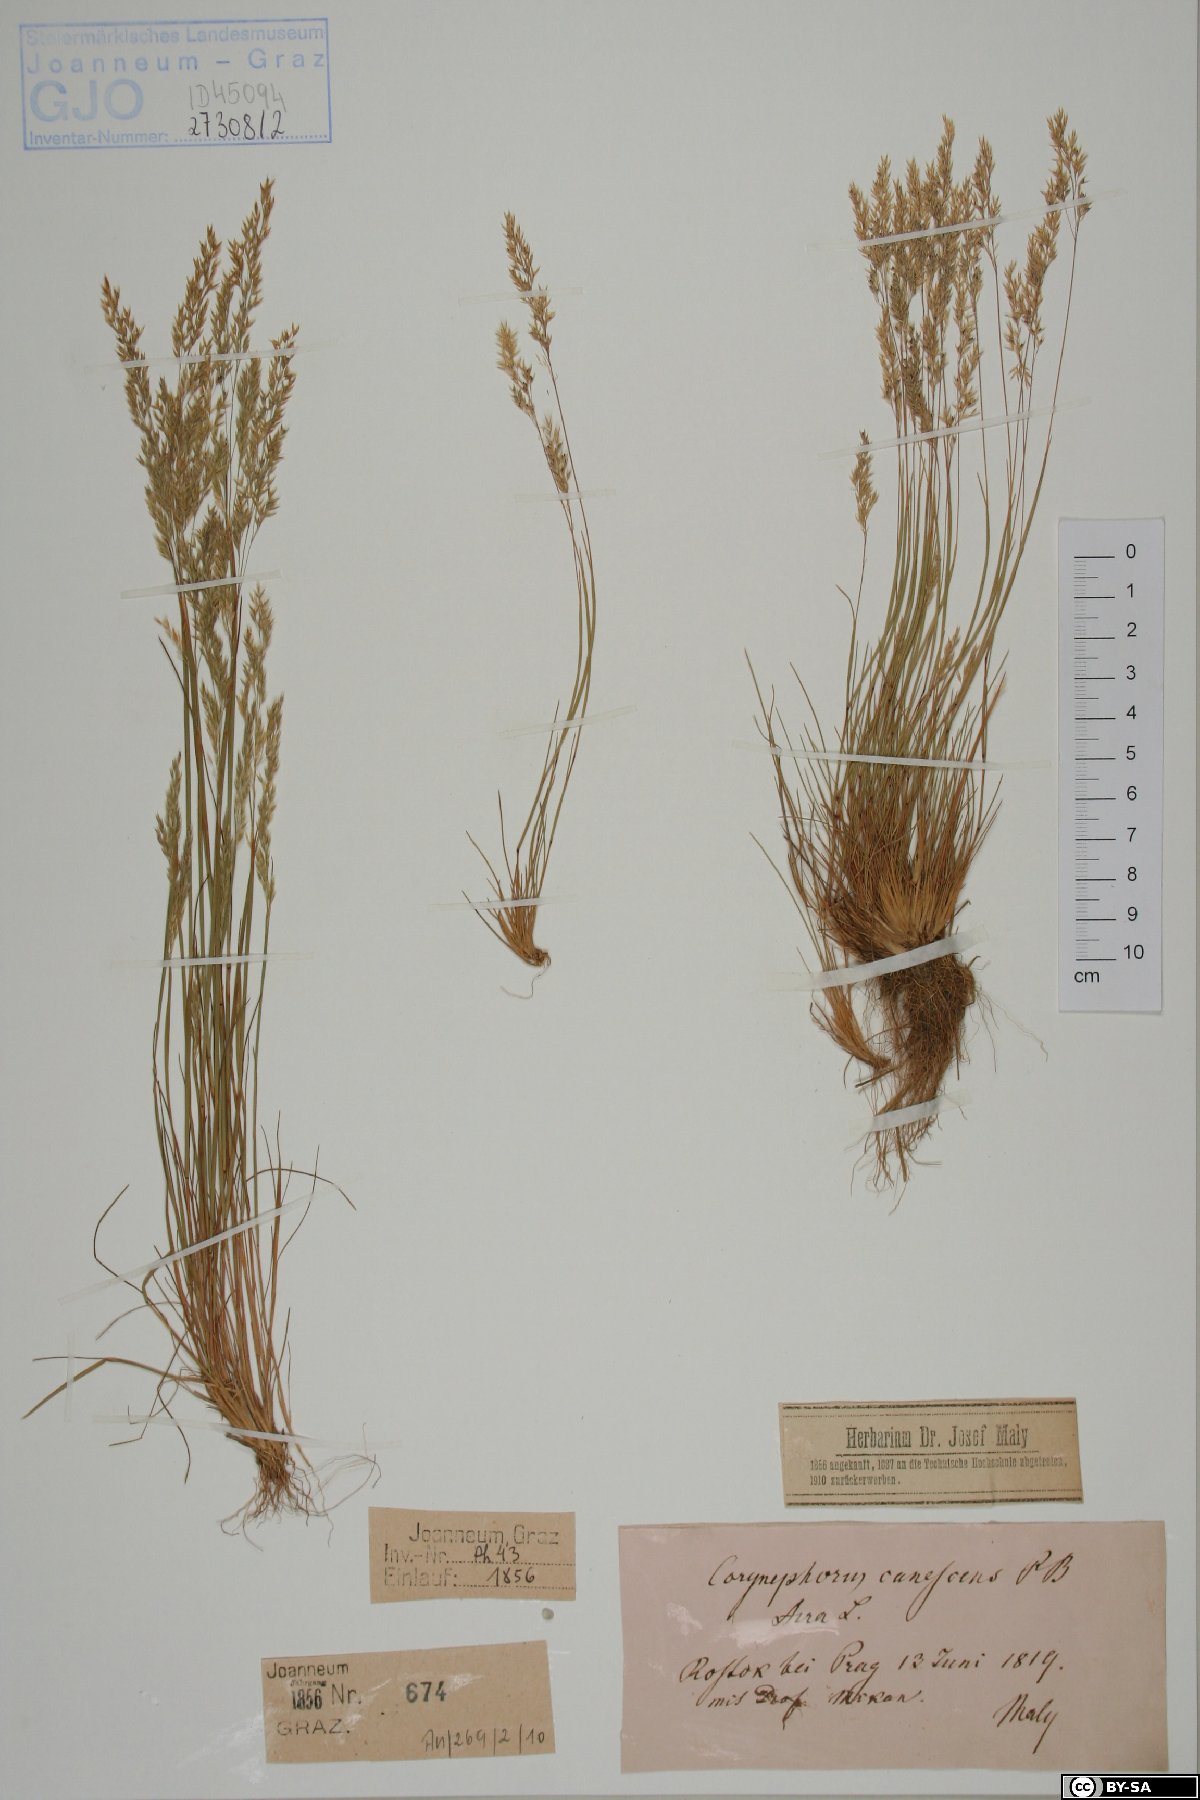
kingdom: Plantae
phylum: Tracheophyta
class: Liliopsida
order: Poales
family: Poaceae
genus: Corynephorus
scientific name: Corynephorus canescens
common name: Grey hair-grass
